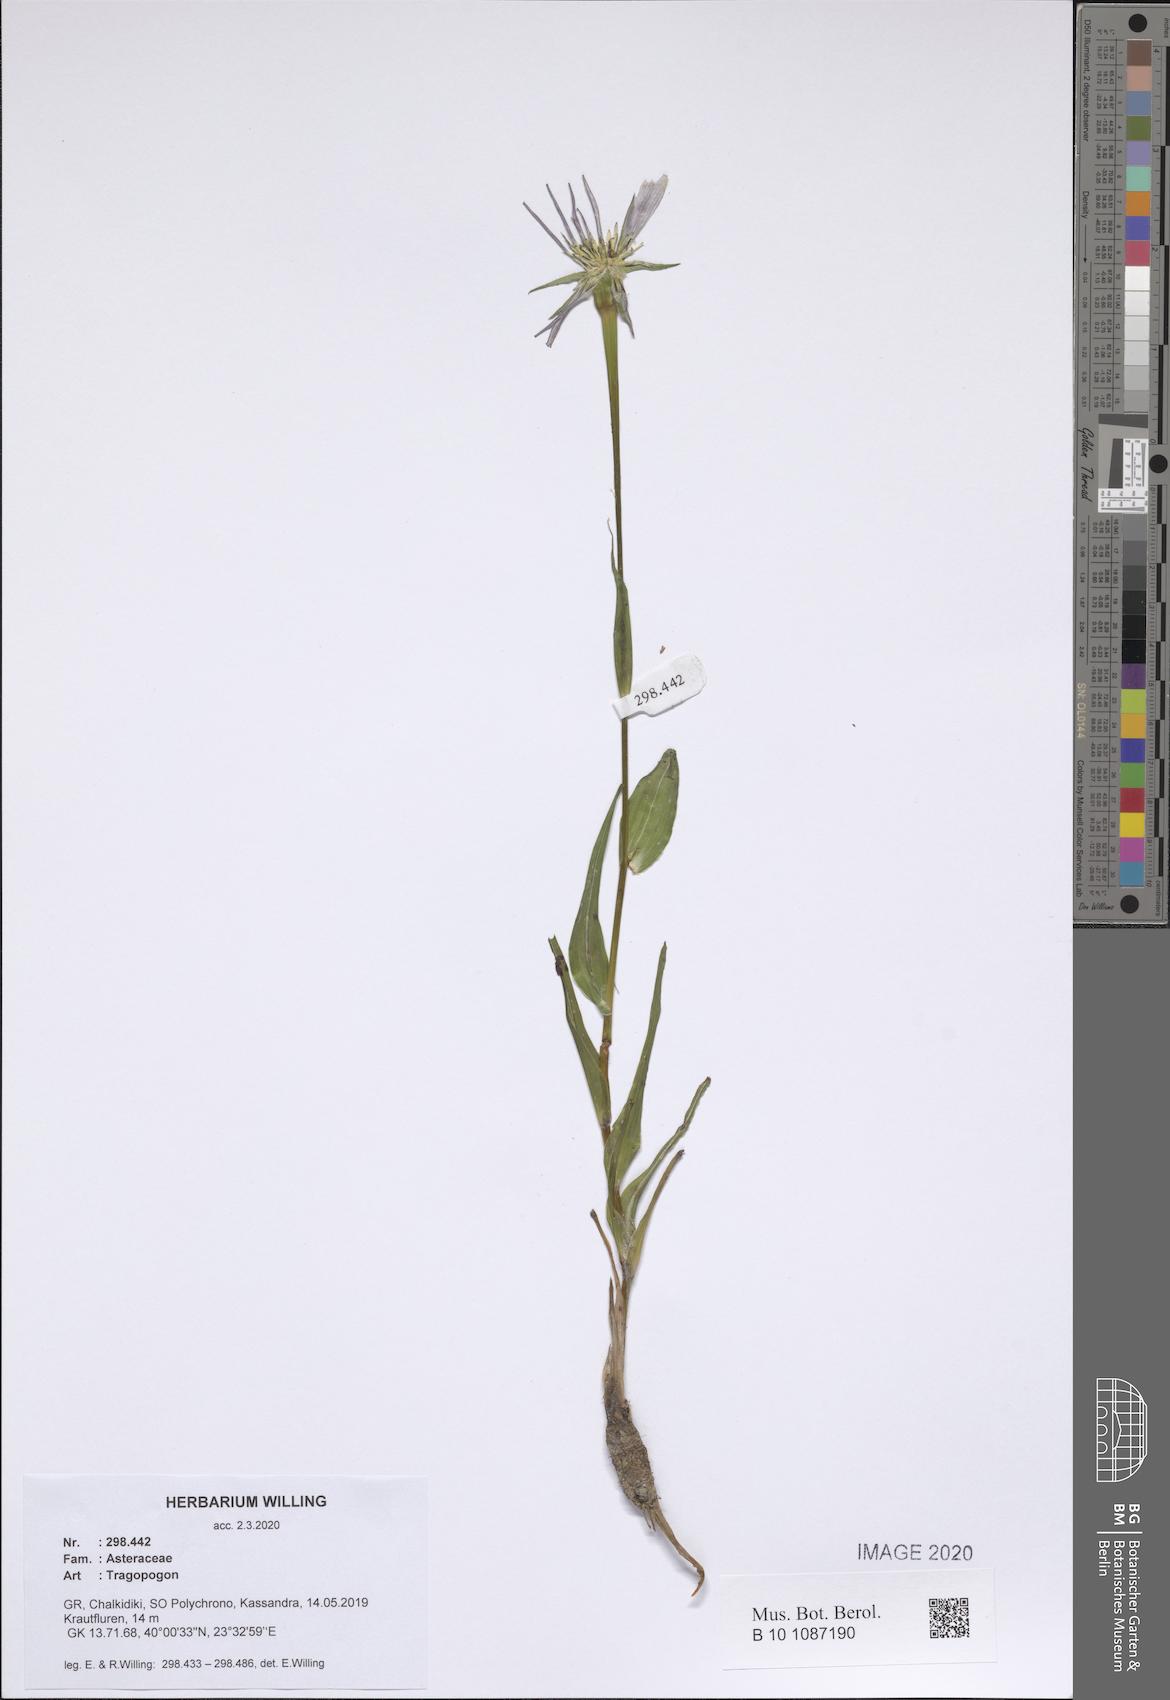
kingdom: Plantae
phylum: Tracheophyta
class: Magnoliopsida
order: Asterales
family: Asteraceae
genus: Tragopogon
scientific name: Tragopogon
